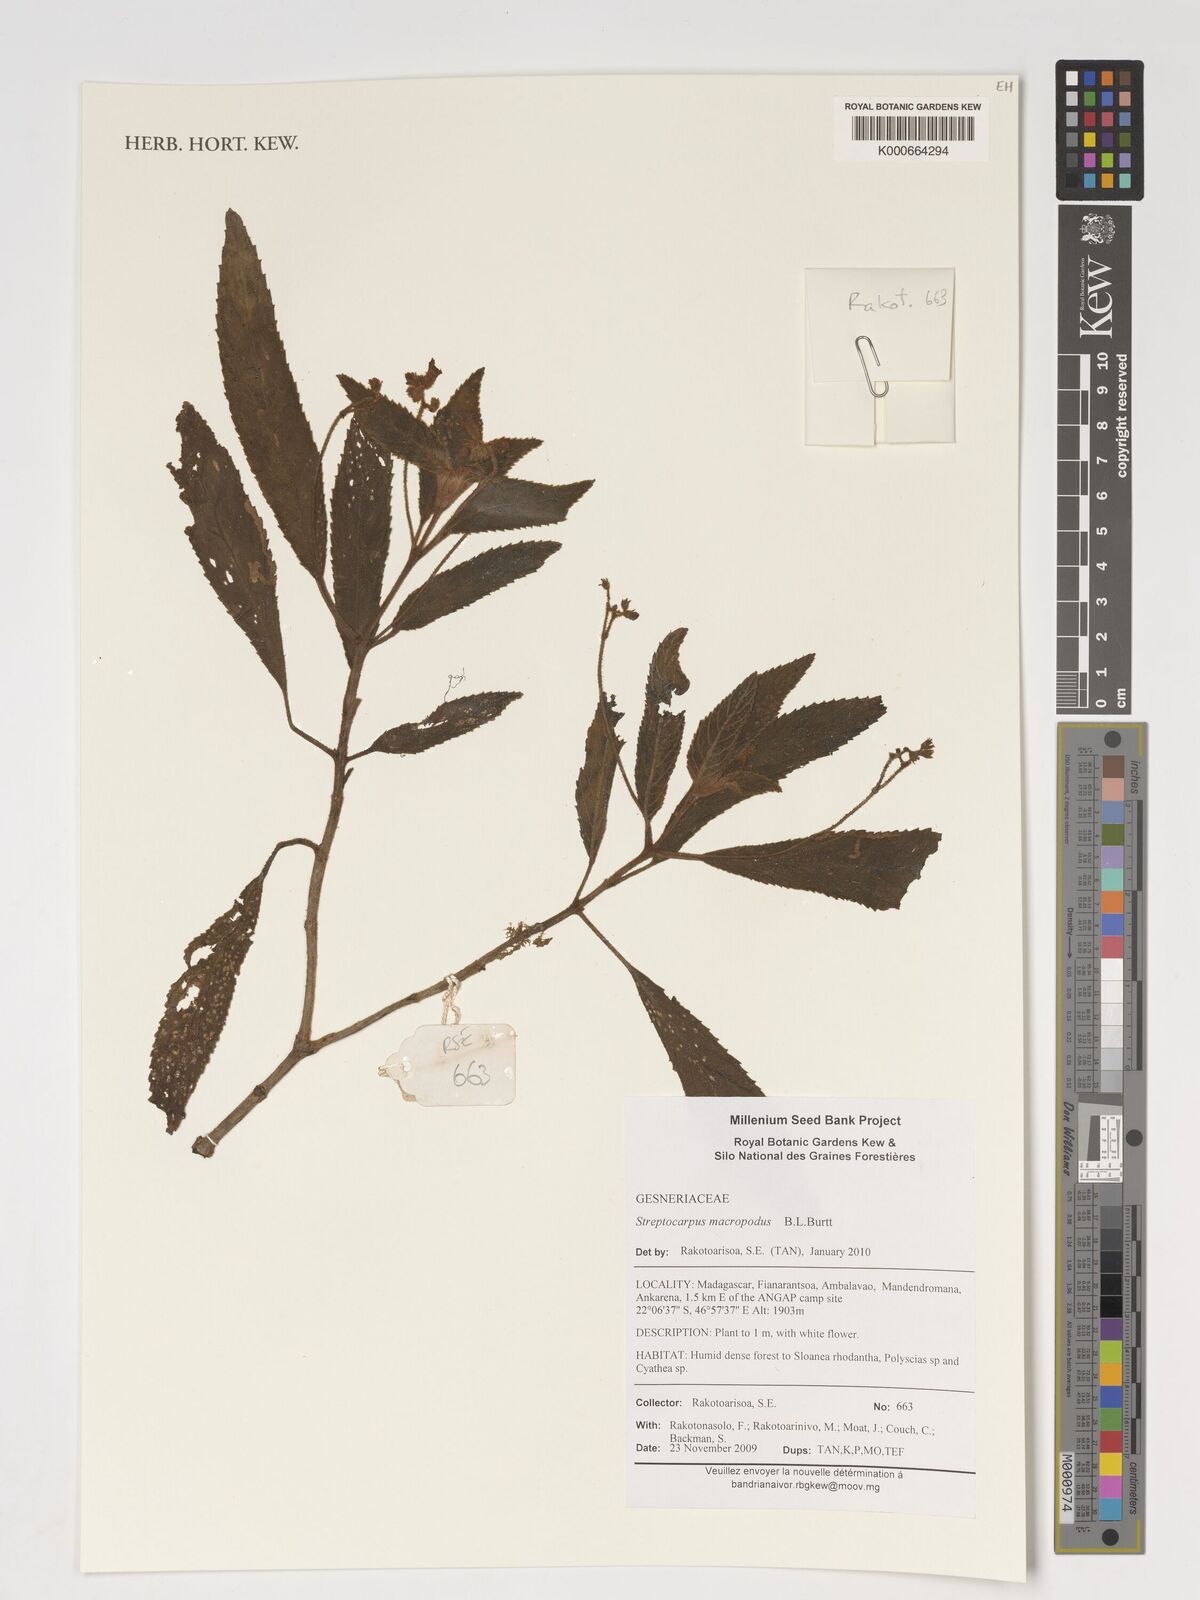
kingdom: Plantae
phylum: Tracheophyta
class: Magnoliopsida
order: Lamiales
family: Gesneriaceae
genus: Streptocarpus
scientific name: Streptocarpus macropodus
